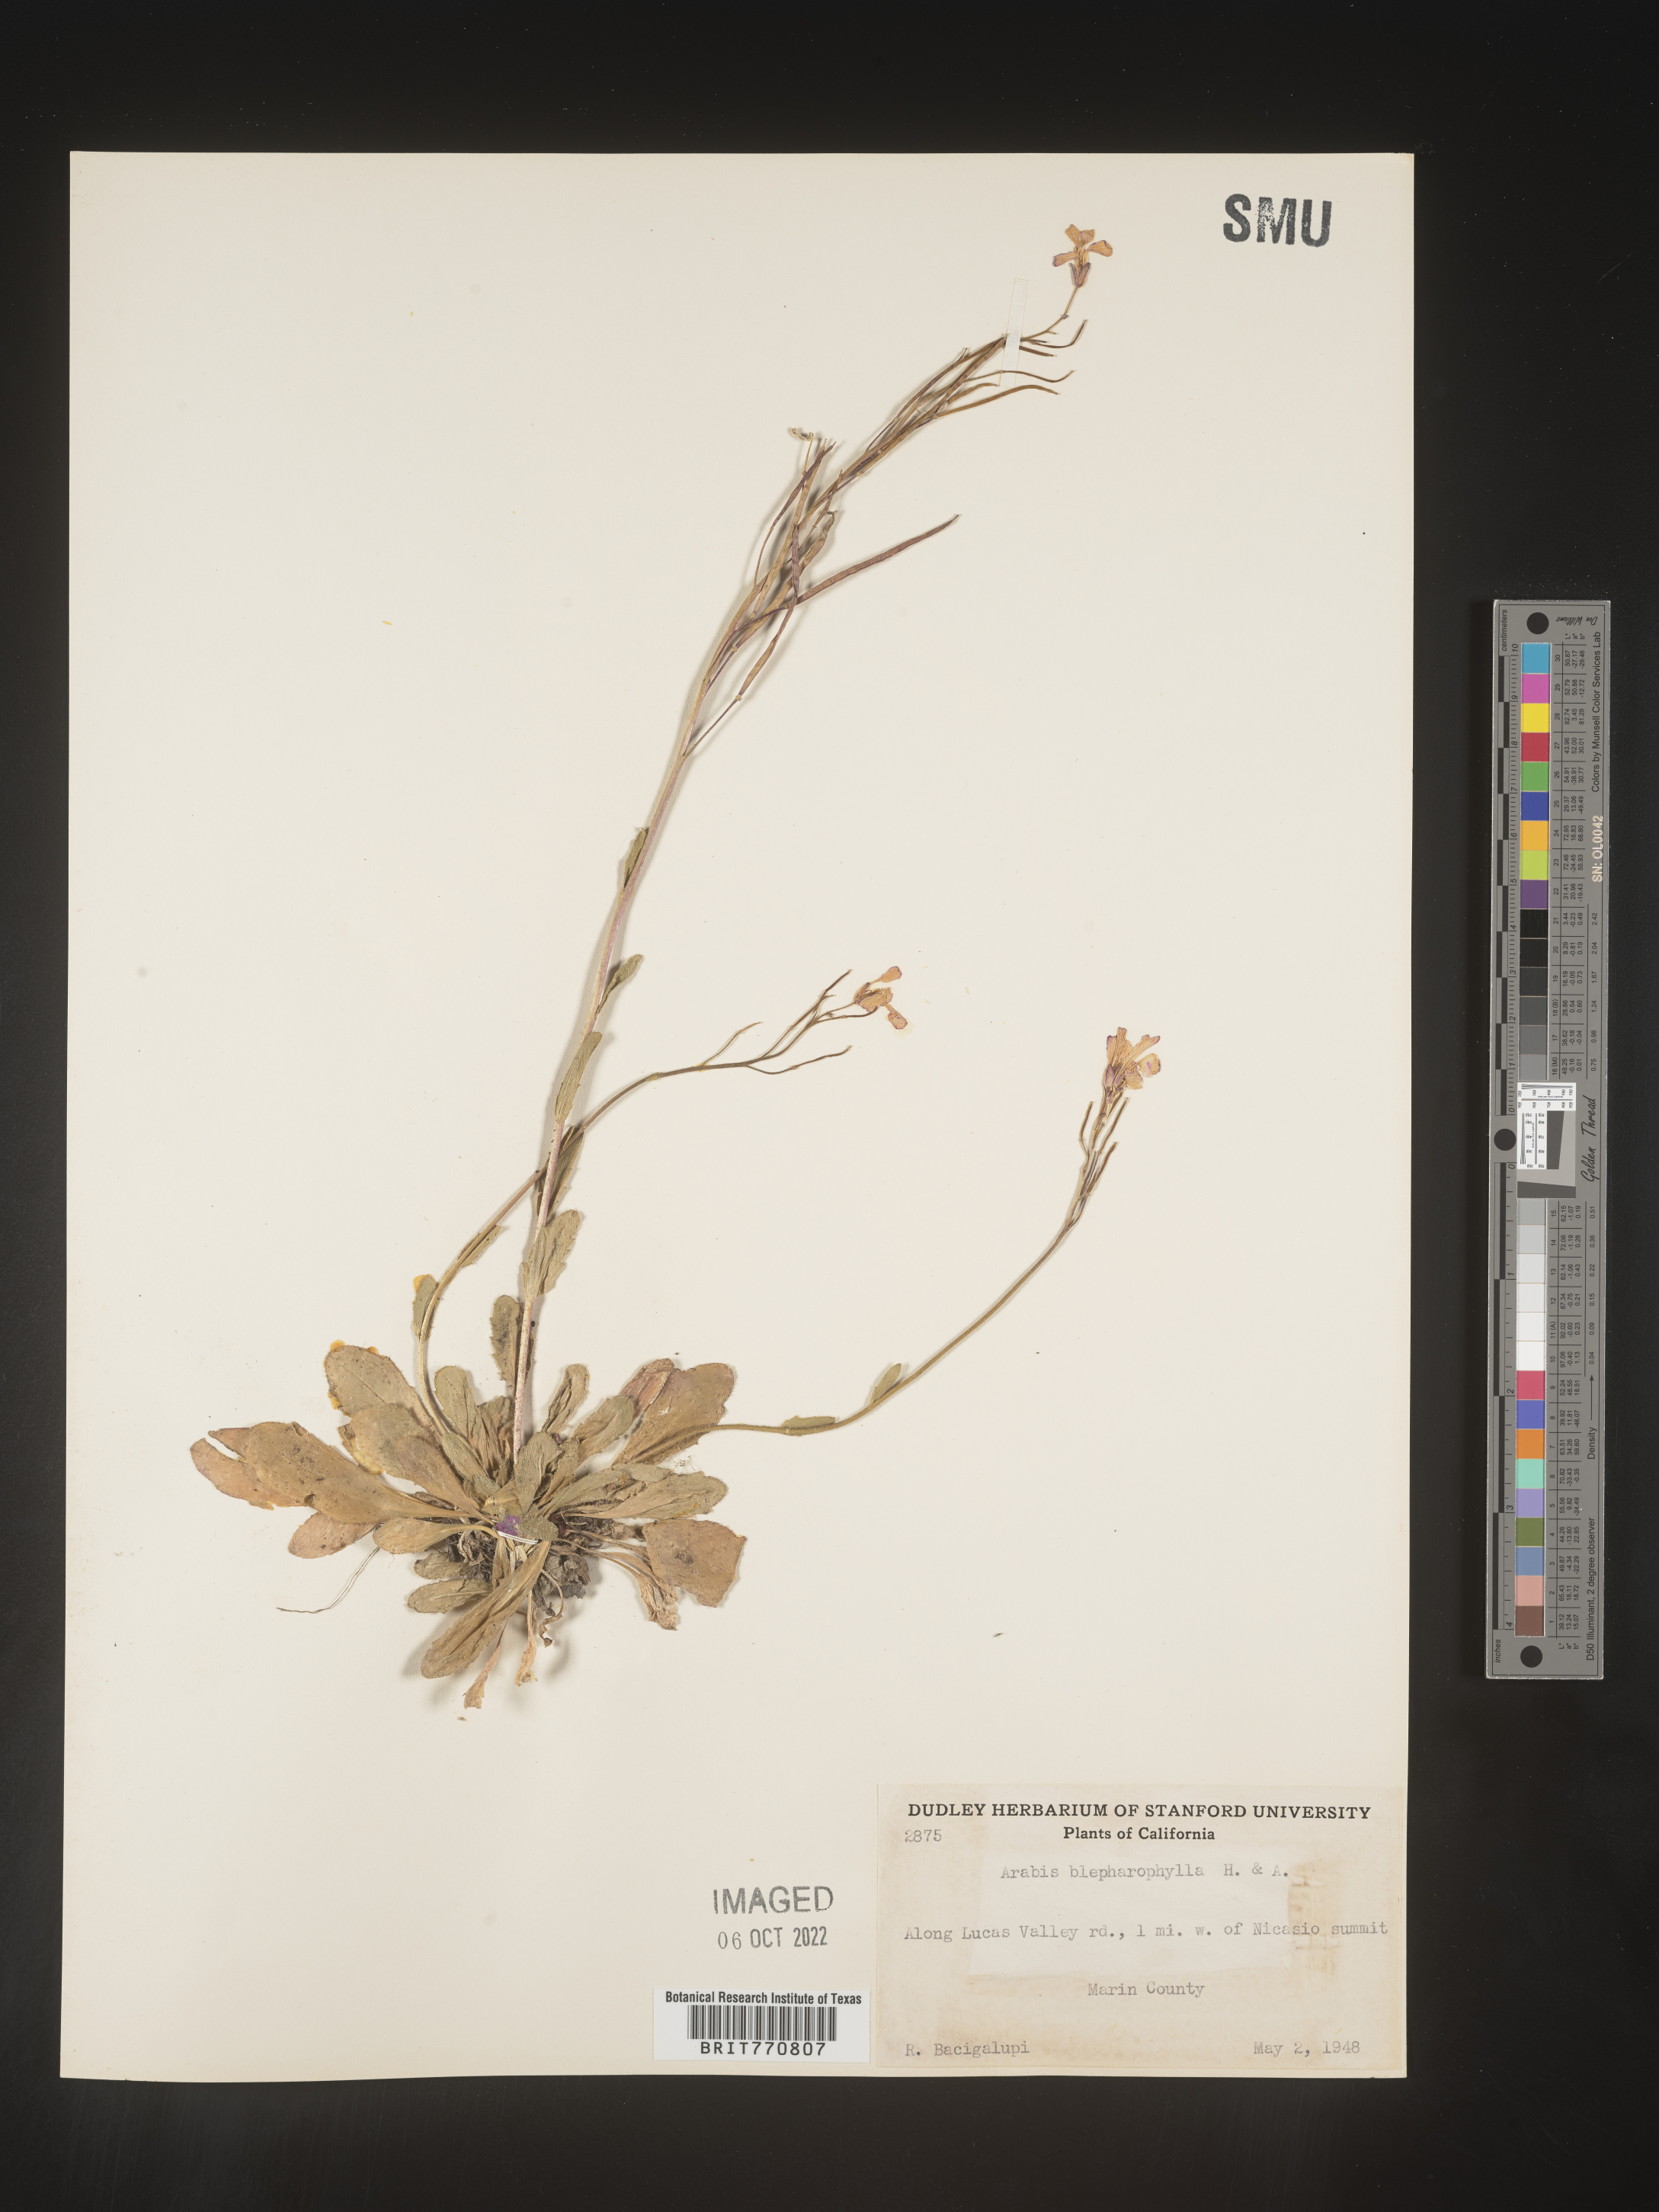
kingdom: Plantae
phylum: Tracheophyta
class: Magnoliopsida
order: Brassicales
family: Brassicaceae
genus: Arabis
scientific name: Arabis
